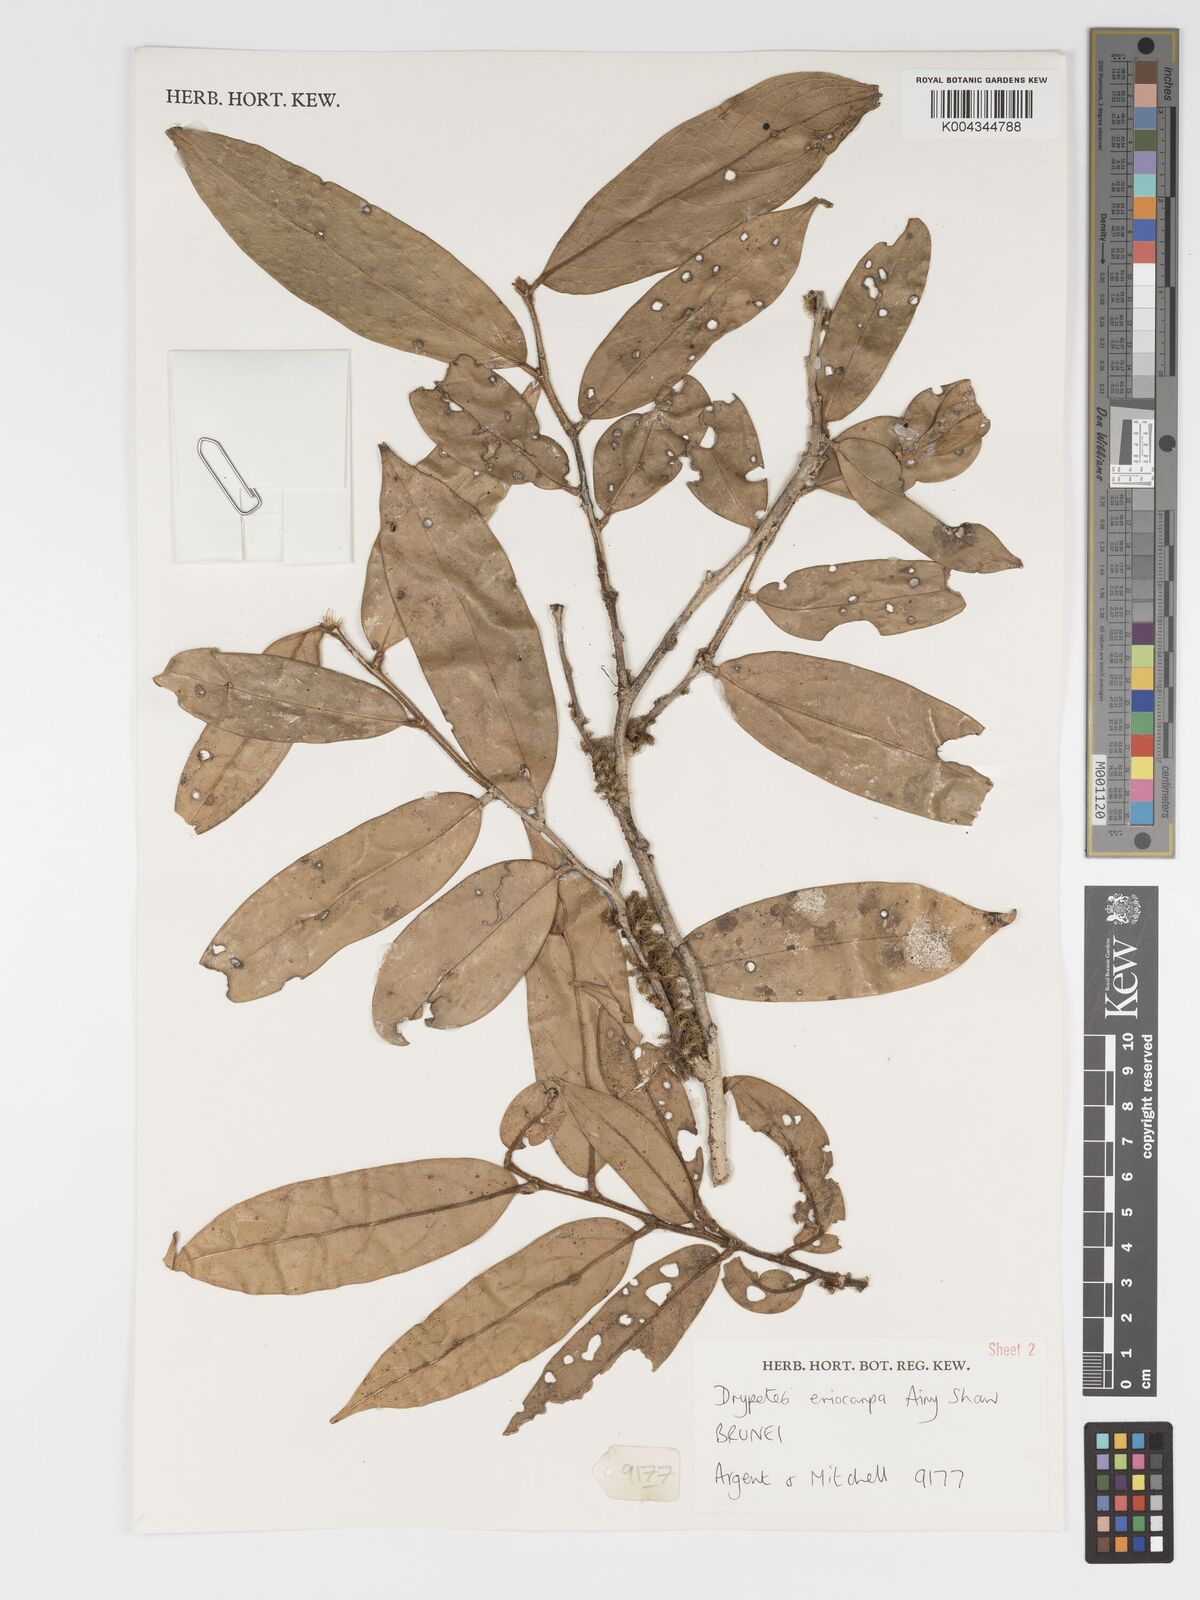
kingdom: Plantae
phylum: Tracheophyta
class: Magnoliopsida
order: Malpighiales
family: Putranjivaceae
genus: Drypetes
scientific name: Drypetes eriocarpa
